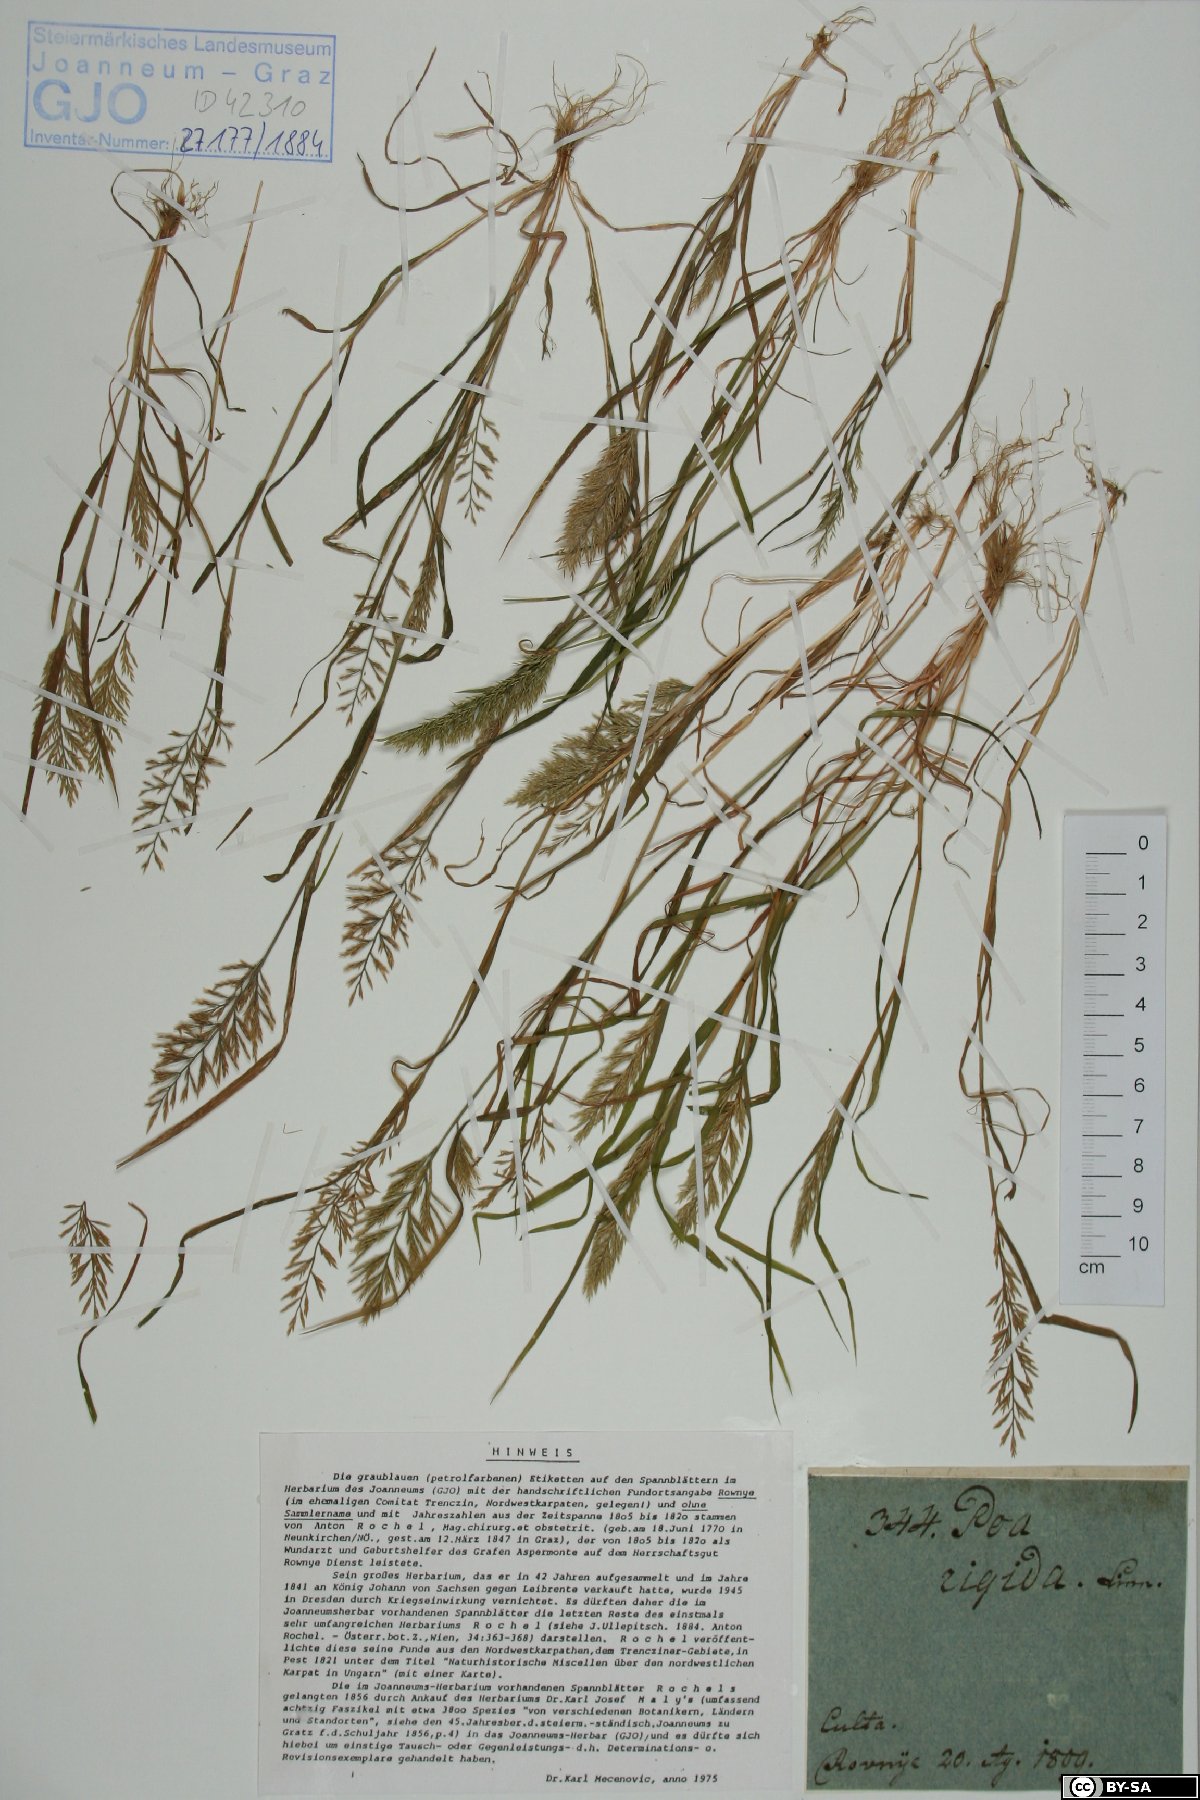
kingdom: Plantae
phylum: Tracheophyta
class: Liliopsida
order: Poales
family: Poaceae
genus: Catapodium
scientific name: Catapodium rigidum
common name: Fern-grass
